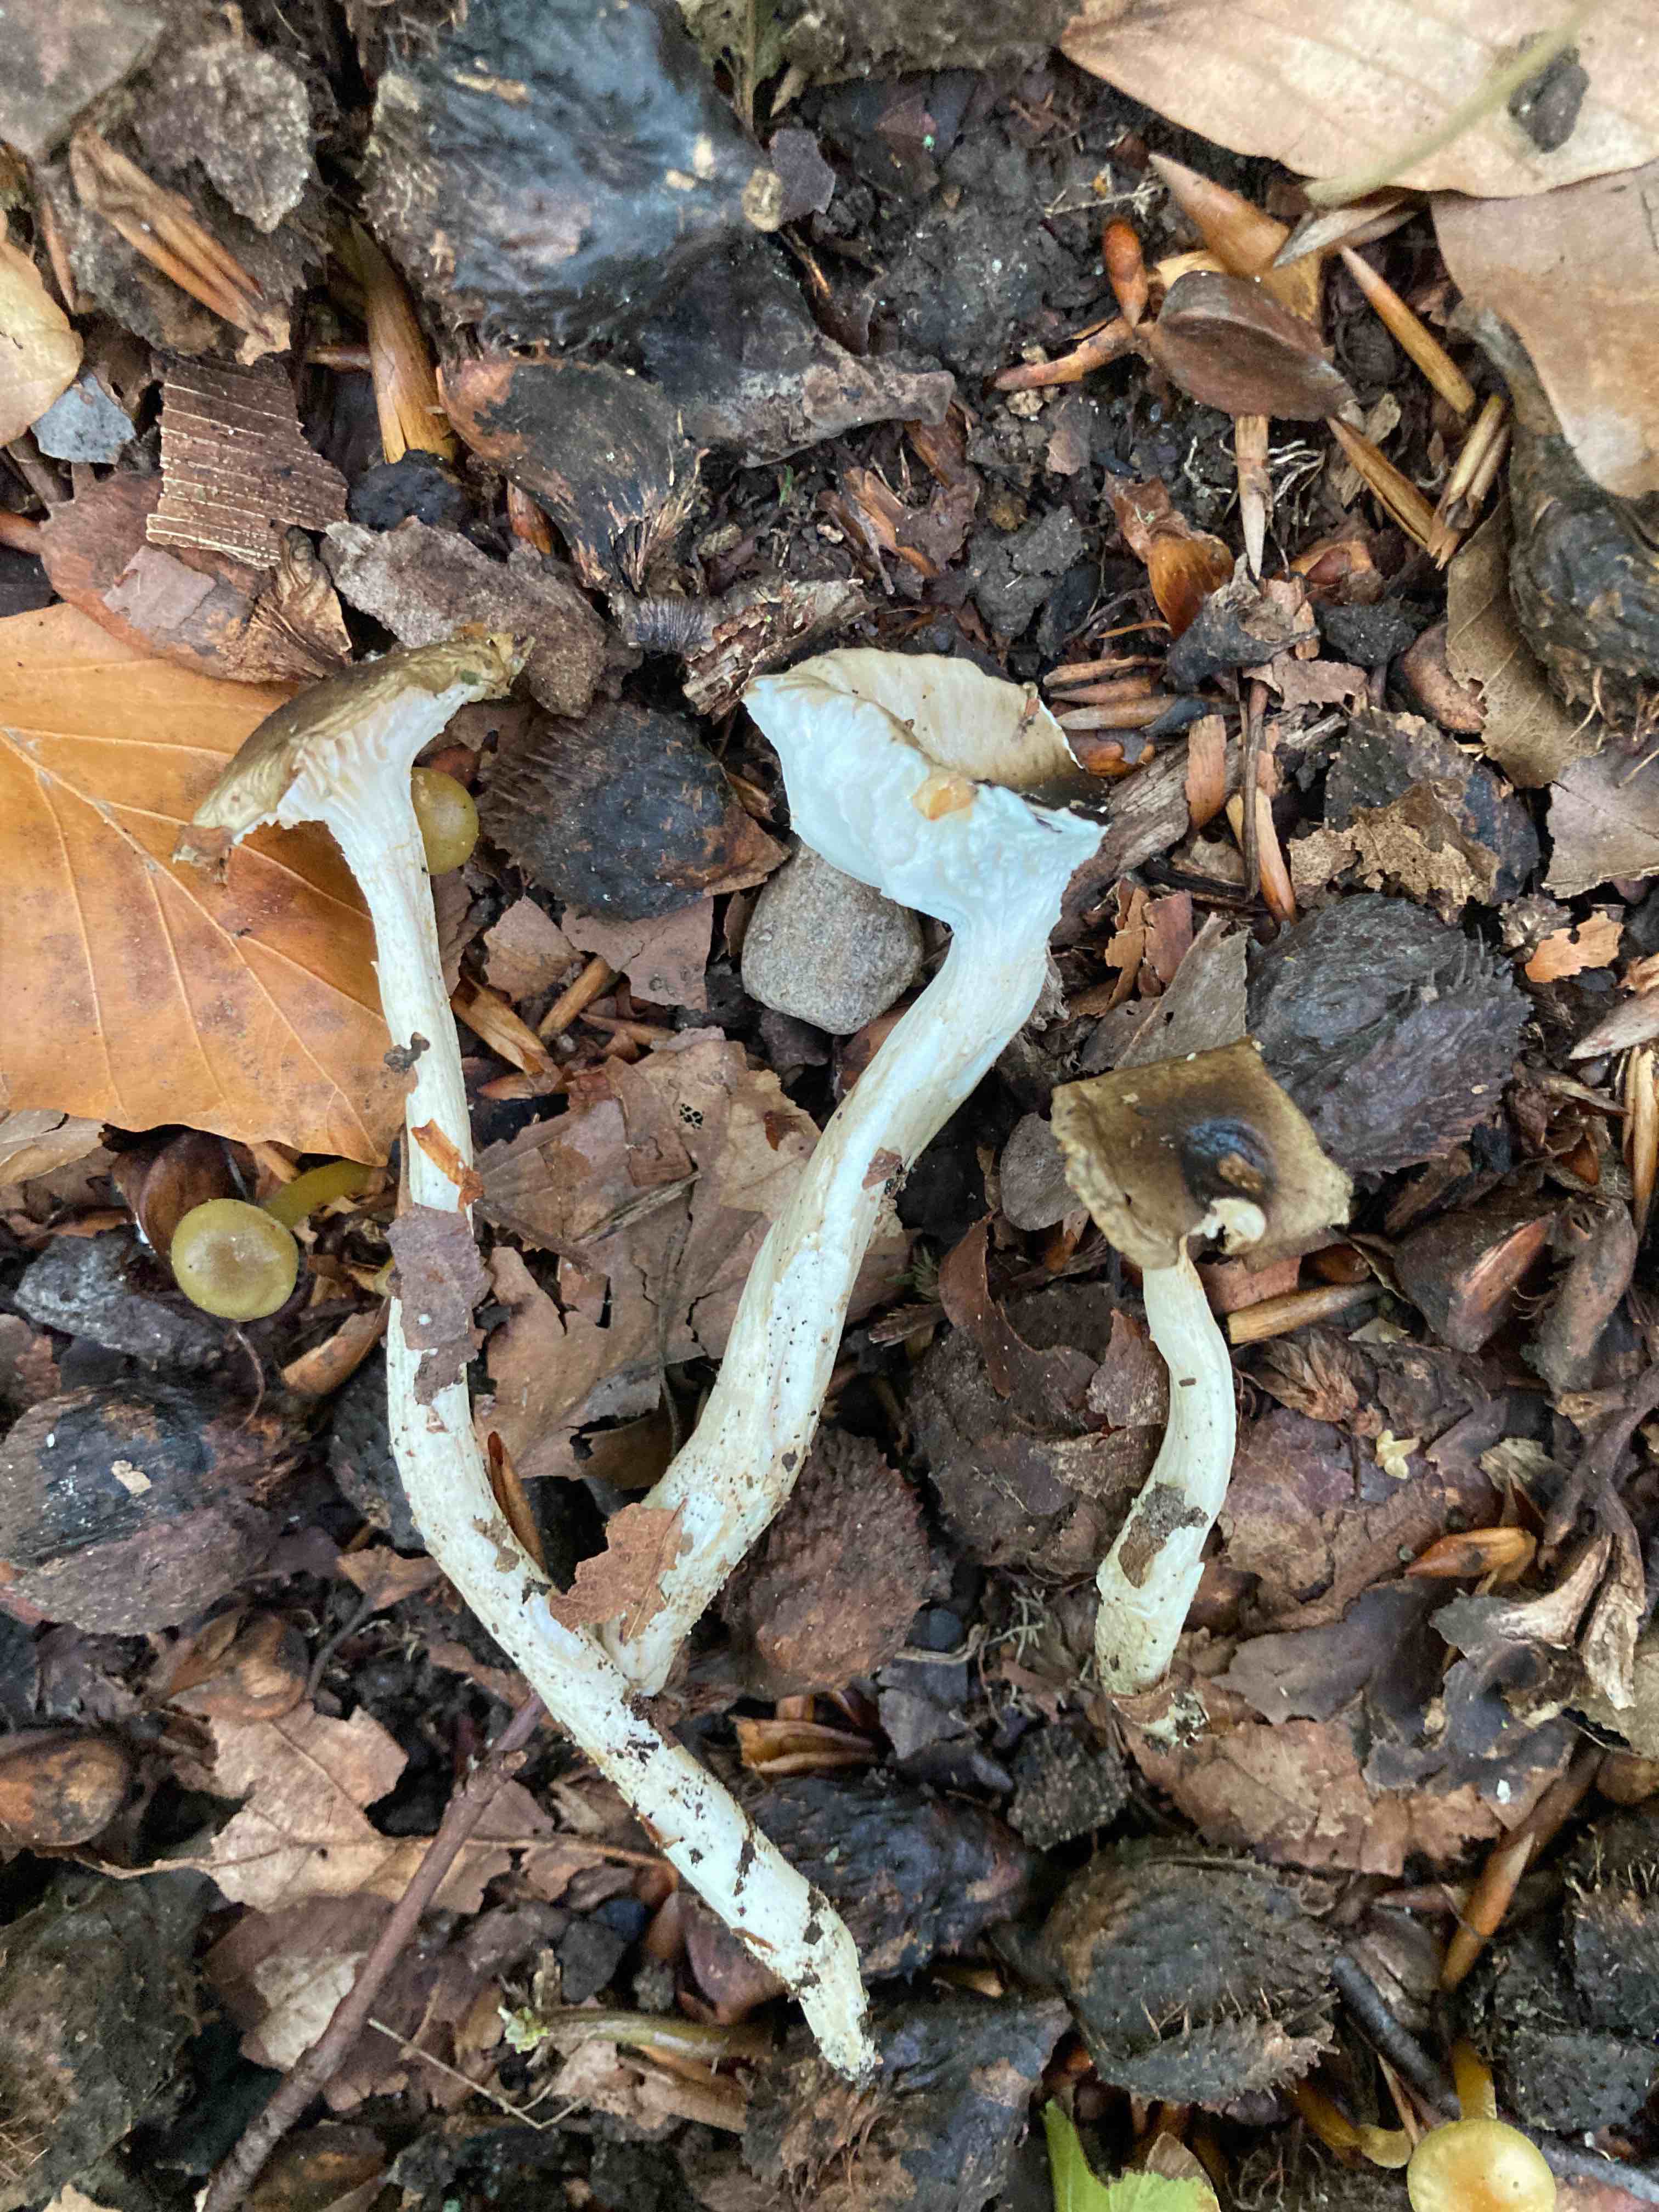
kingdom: Fungi
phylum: Basidiomycota
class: Agaricomycetes
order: Agaricales
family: Hygrophoraceae
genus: Hygrophorus
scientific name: Hygrophorus mesotephrus
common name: askegrå sneglehat
